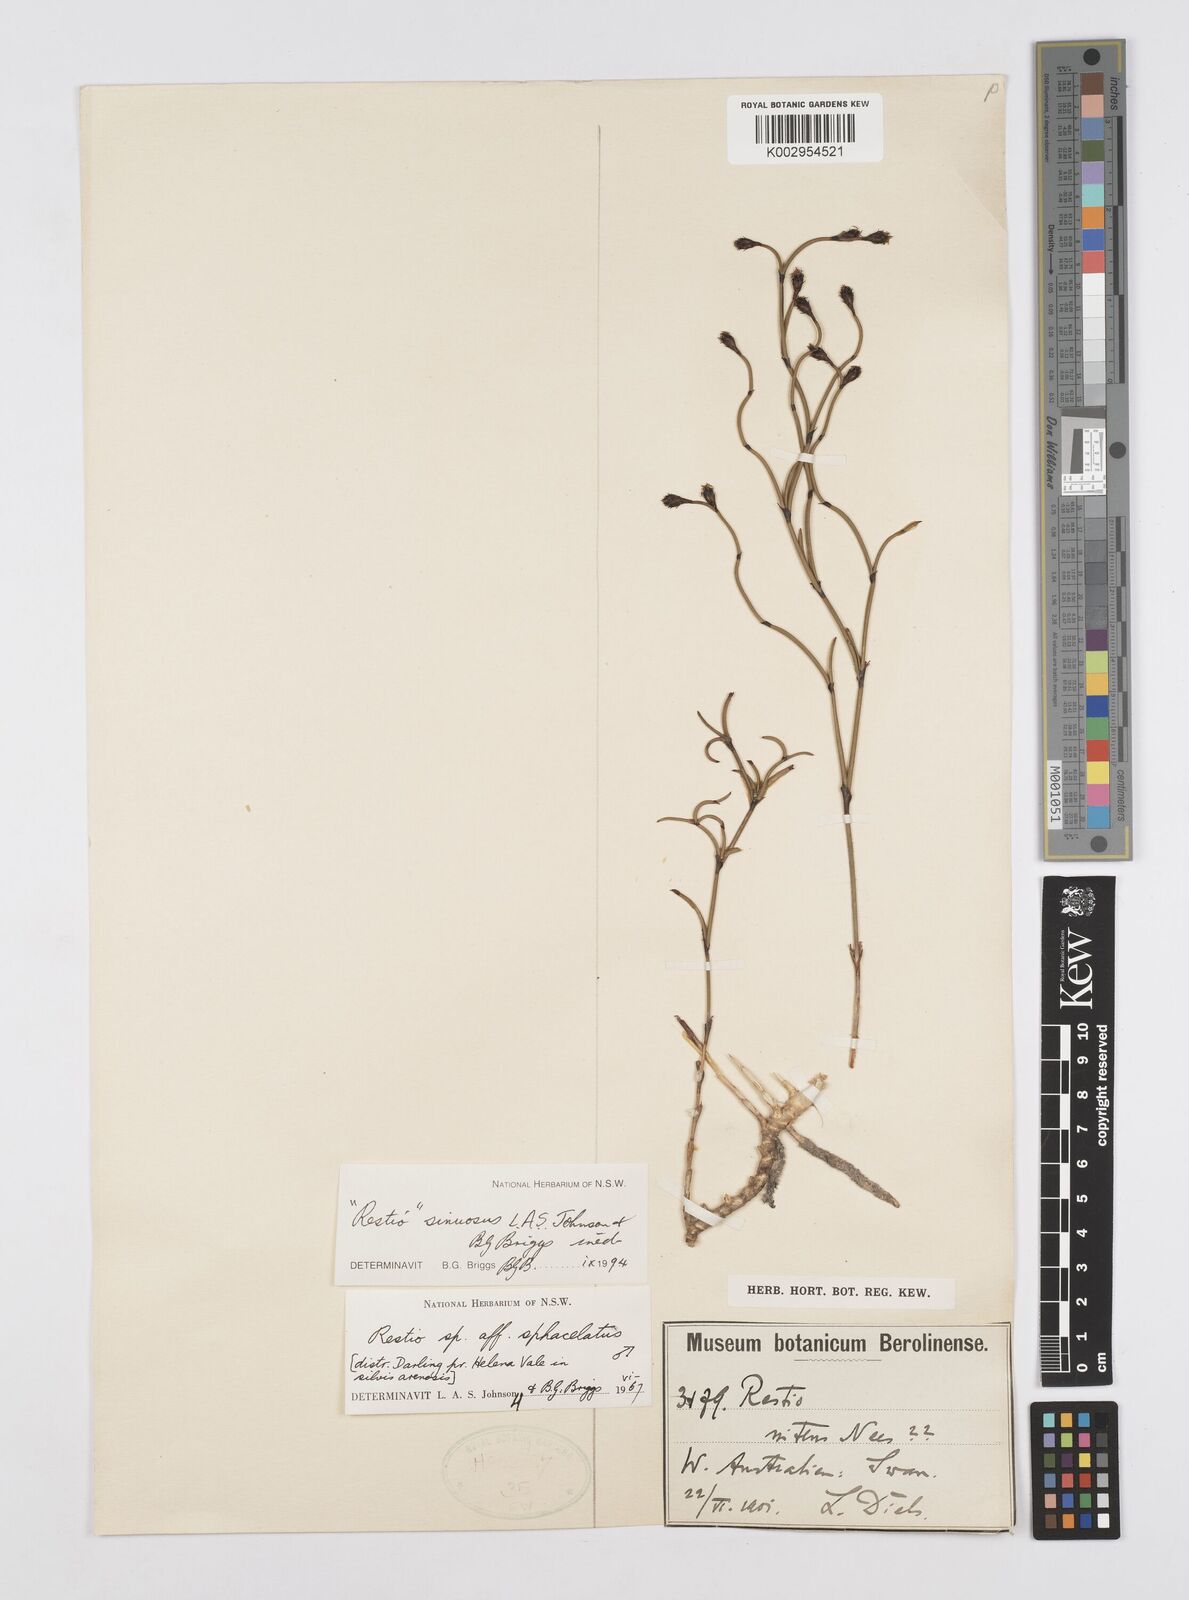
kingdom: Plantae
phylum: Tracheophyta
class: Liliopsida
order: Poales
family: Restionaceae
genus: Chordifex
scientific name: Chordifex sinuosus
